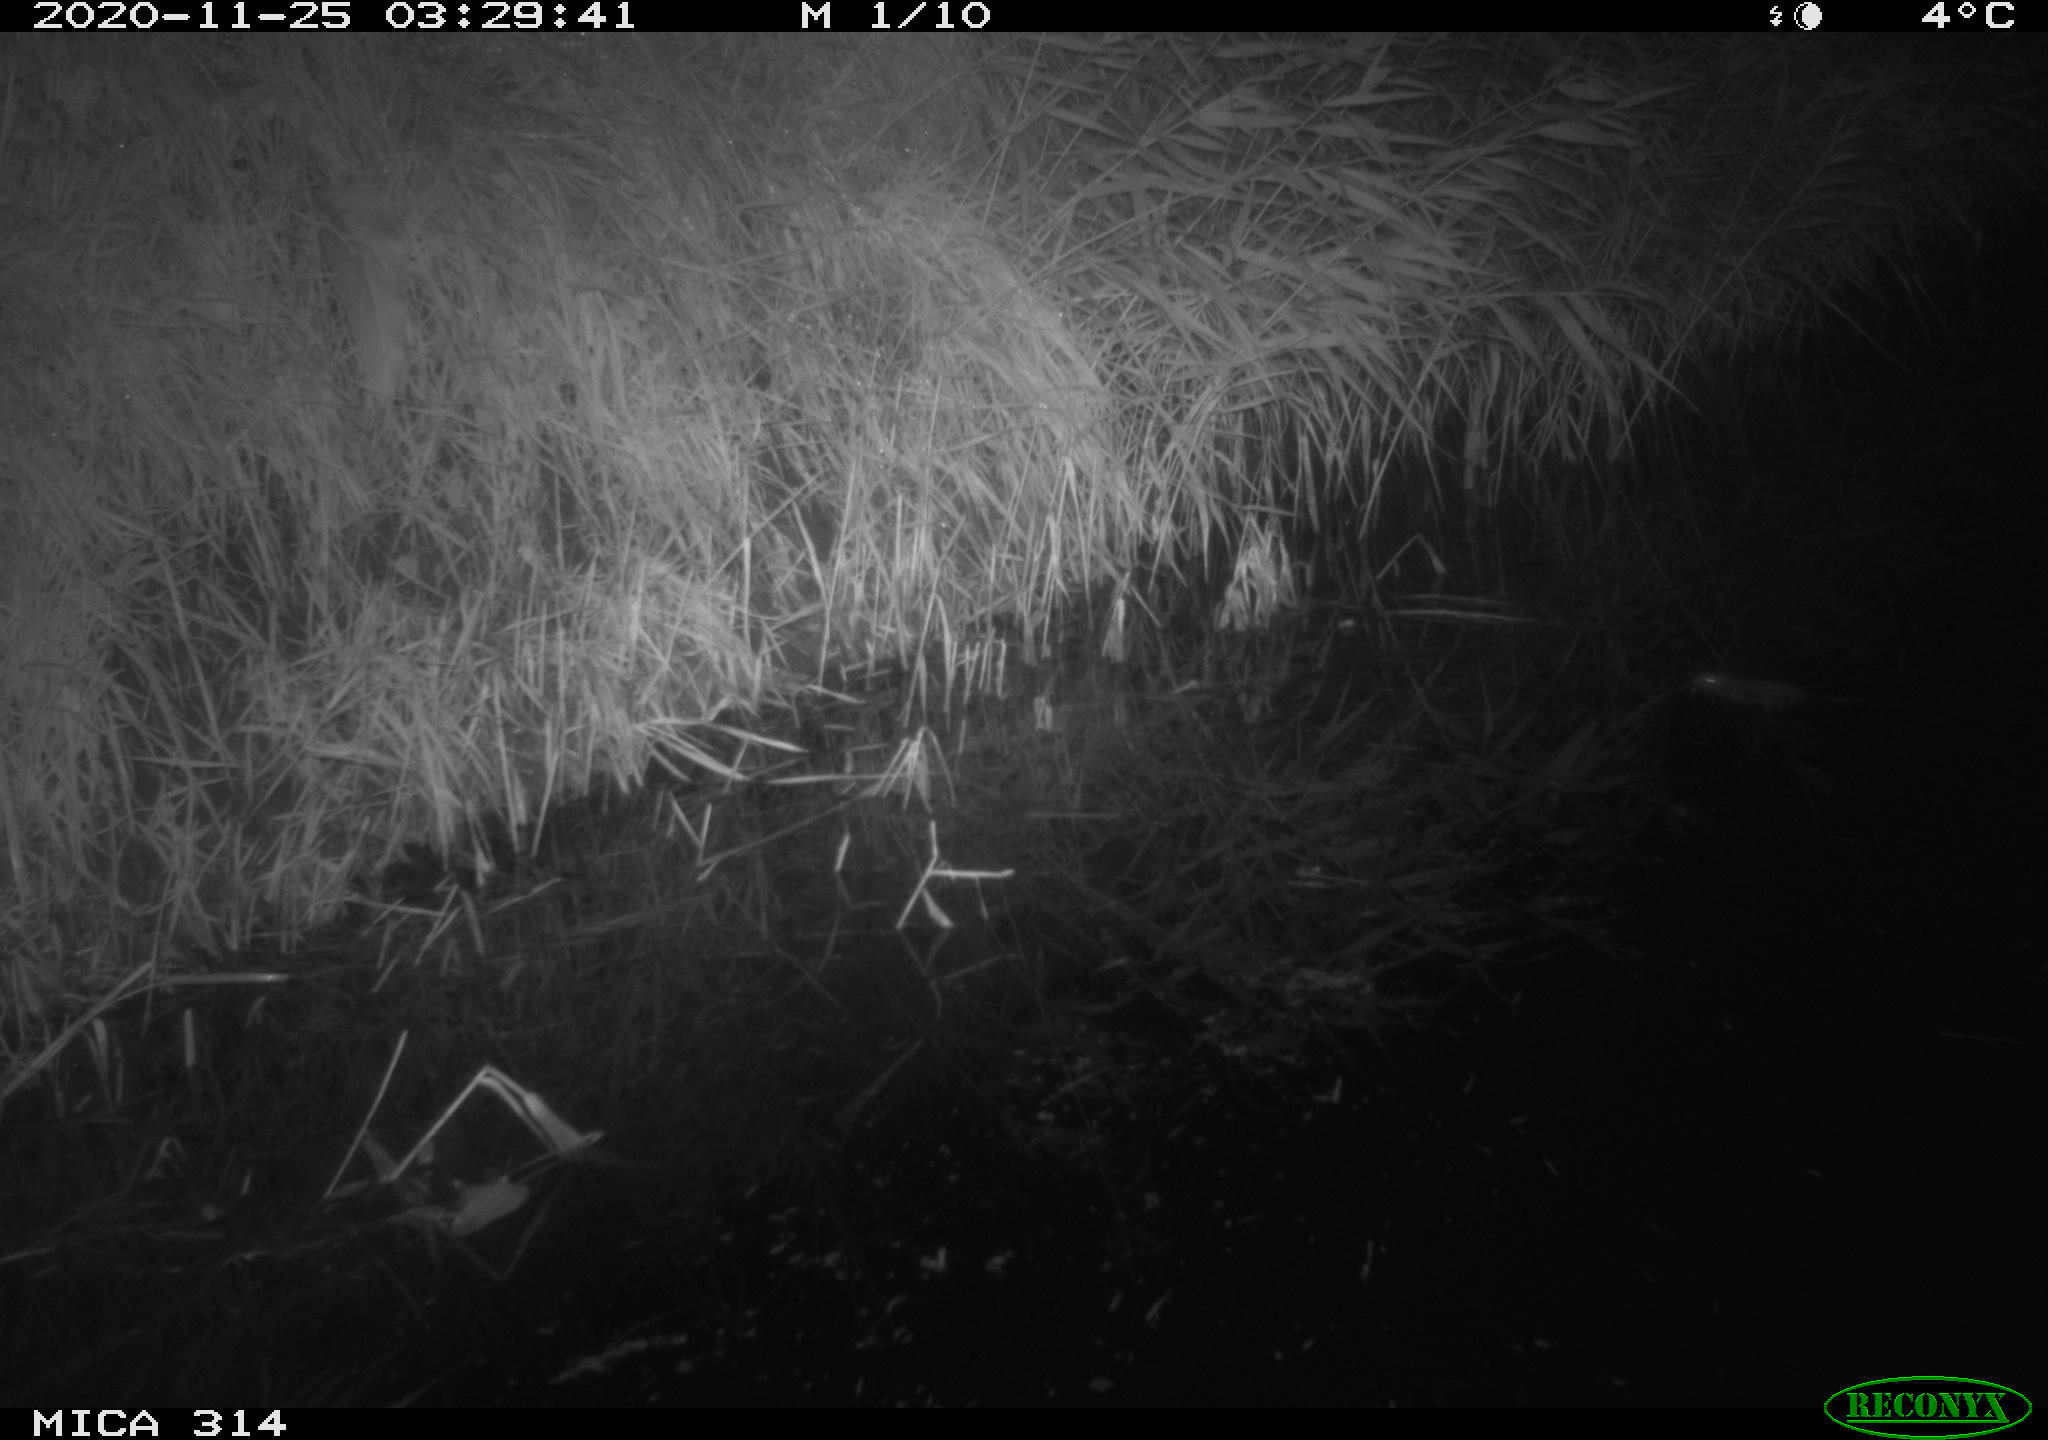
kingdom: Animalia
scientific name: Animalia
